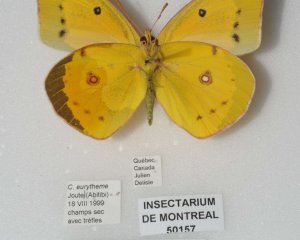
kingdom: Animalia
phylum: Arthropoda
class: Insecta
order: Lepidoptera
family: Pieridae
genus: Colias
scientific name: Colias eurytheme
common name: Orange Sulphur
